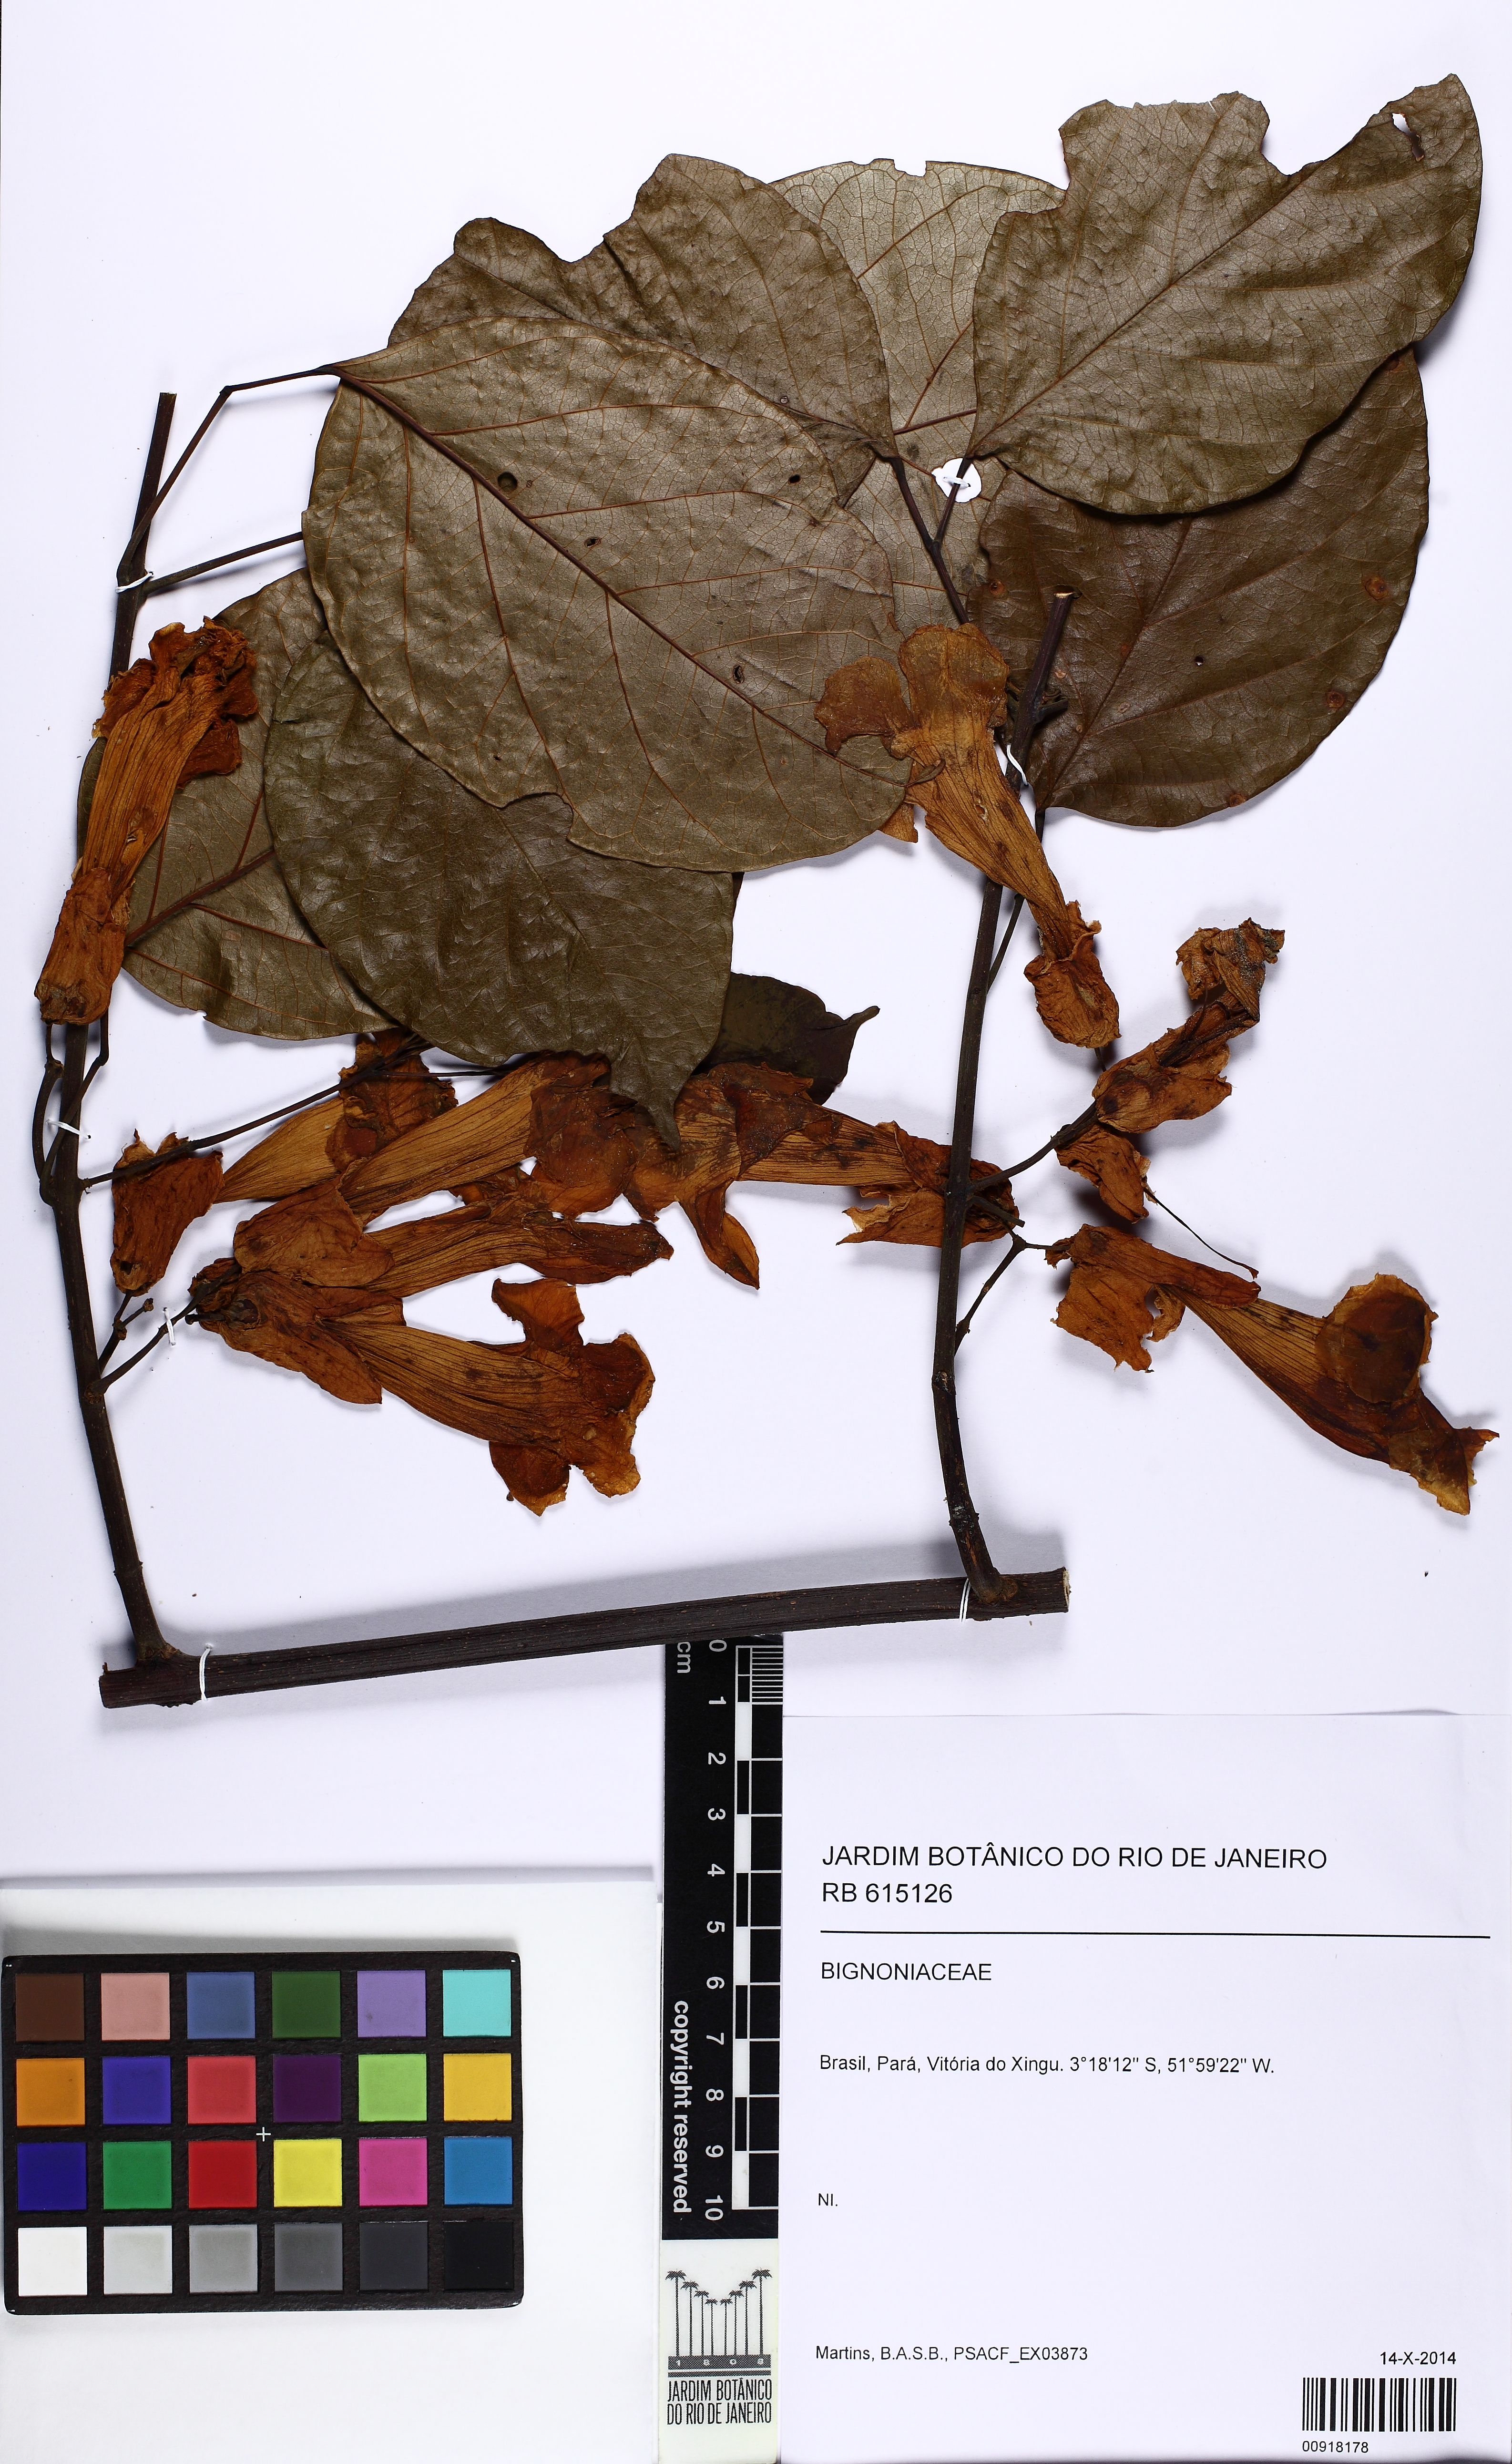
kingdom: Plantae
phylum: Tracheophyta
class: Magnoliopsida
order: Lamiales
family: Bignoniaceae
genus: Callichlamys
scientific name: Callichlamys latifolia
